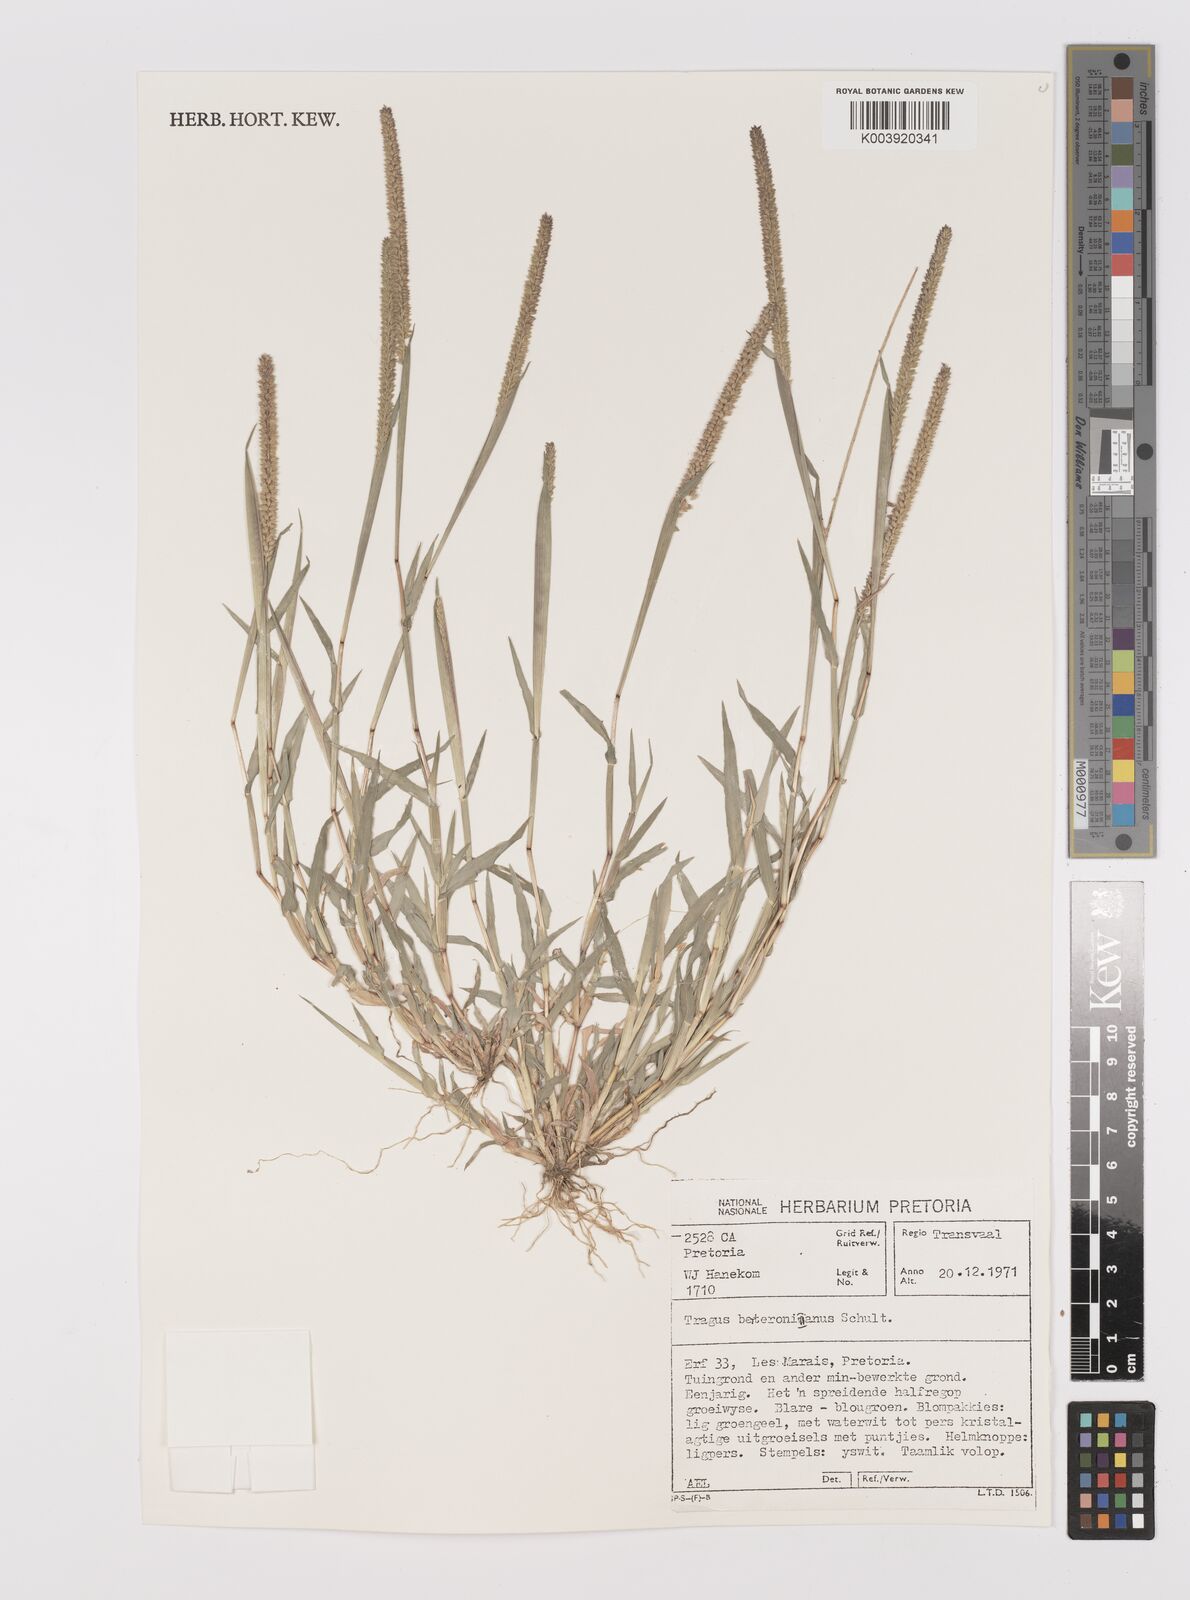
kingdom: Plantae
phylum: Tracheophyta
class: Liliopsida
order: Poales
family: Poaceae
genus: Tragus
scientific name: Tragus berteronianus
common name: African bur-grass
